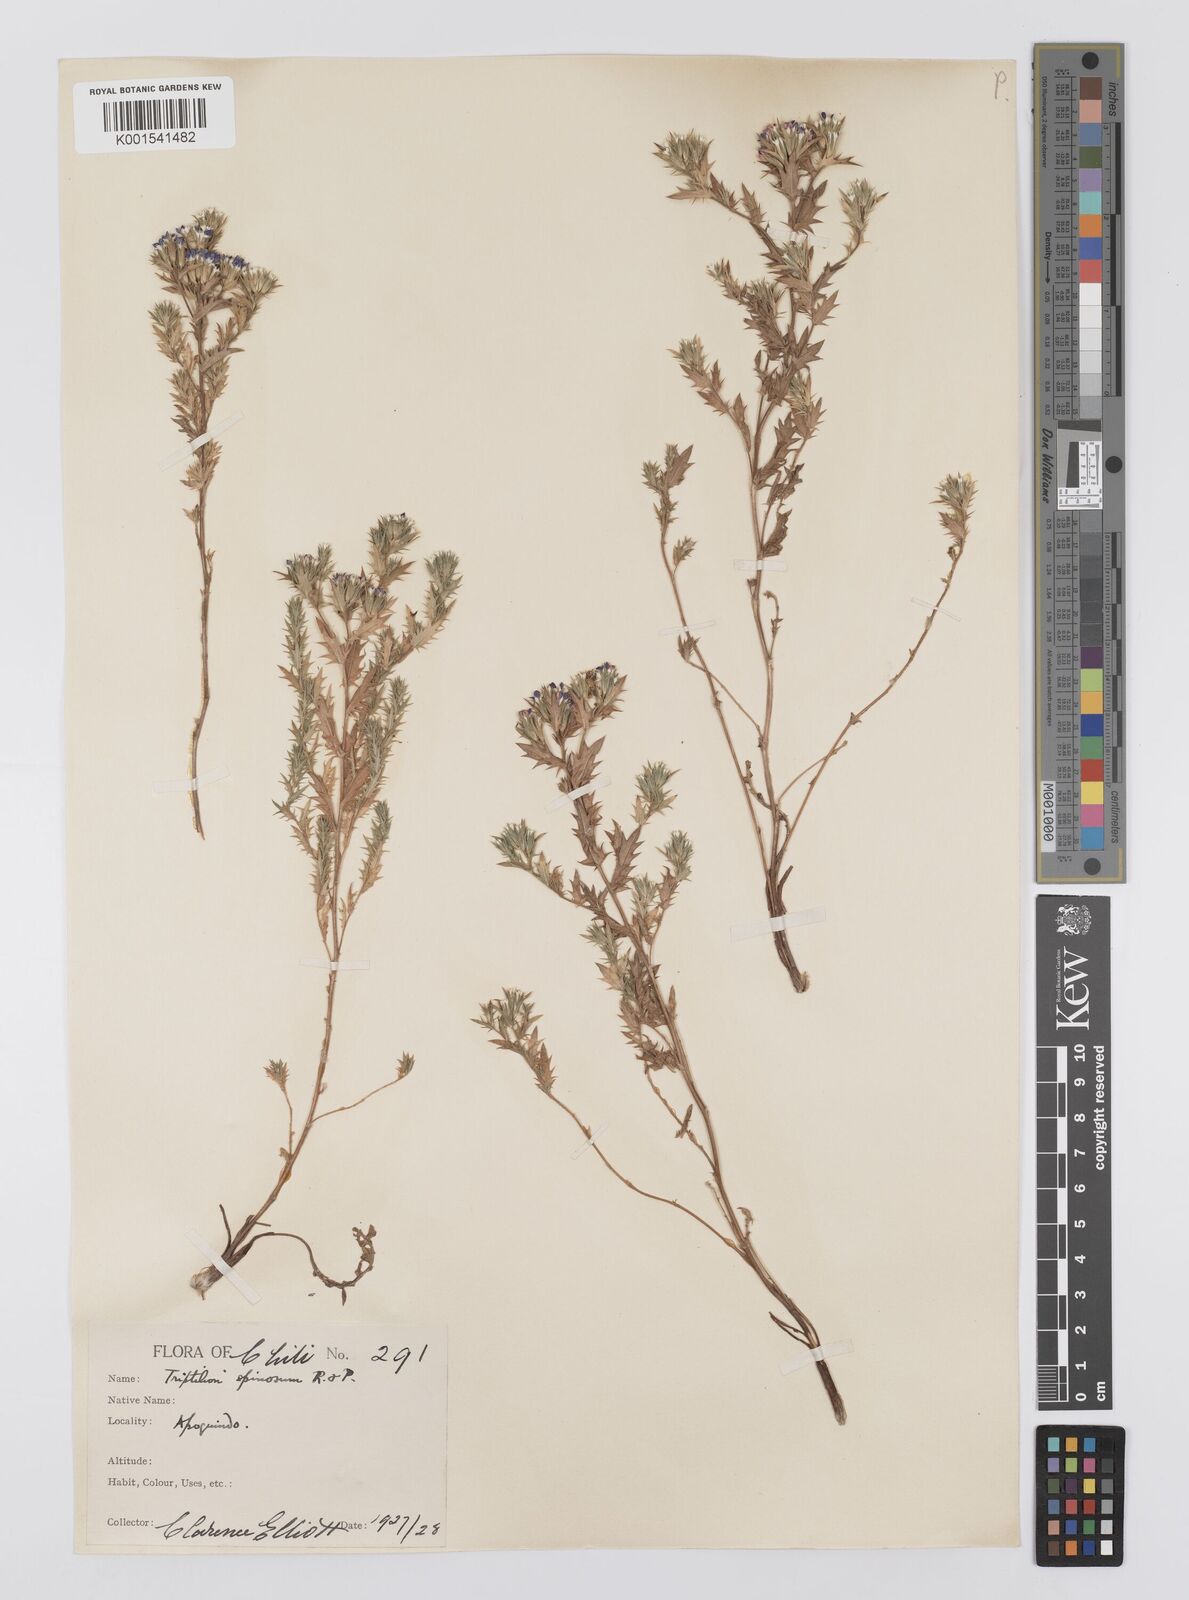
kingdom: Plantae
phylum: Tracheophyta
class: Magnoliopsida
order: Asterales
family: Asteraceae
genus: Triptilion
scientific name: Triptilion spinosum
